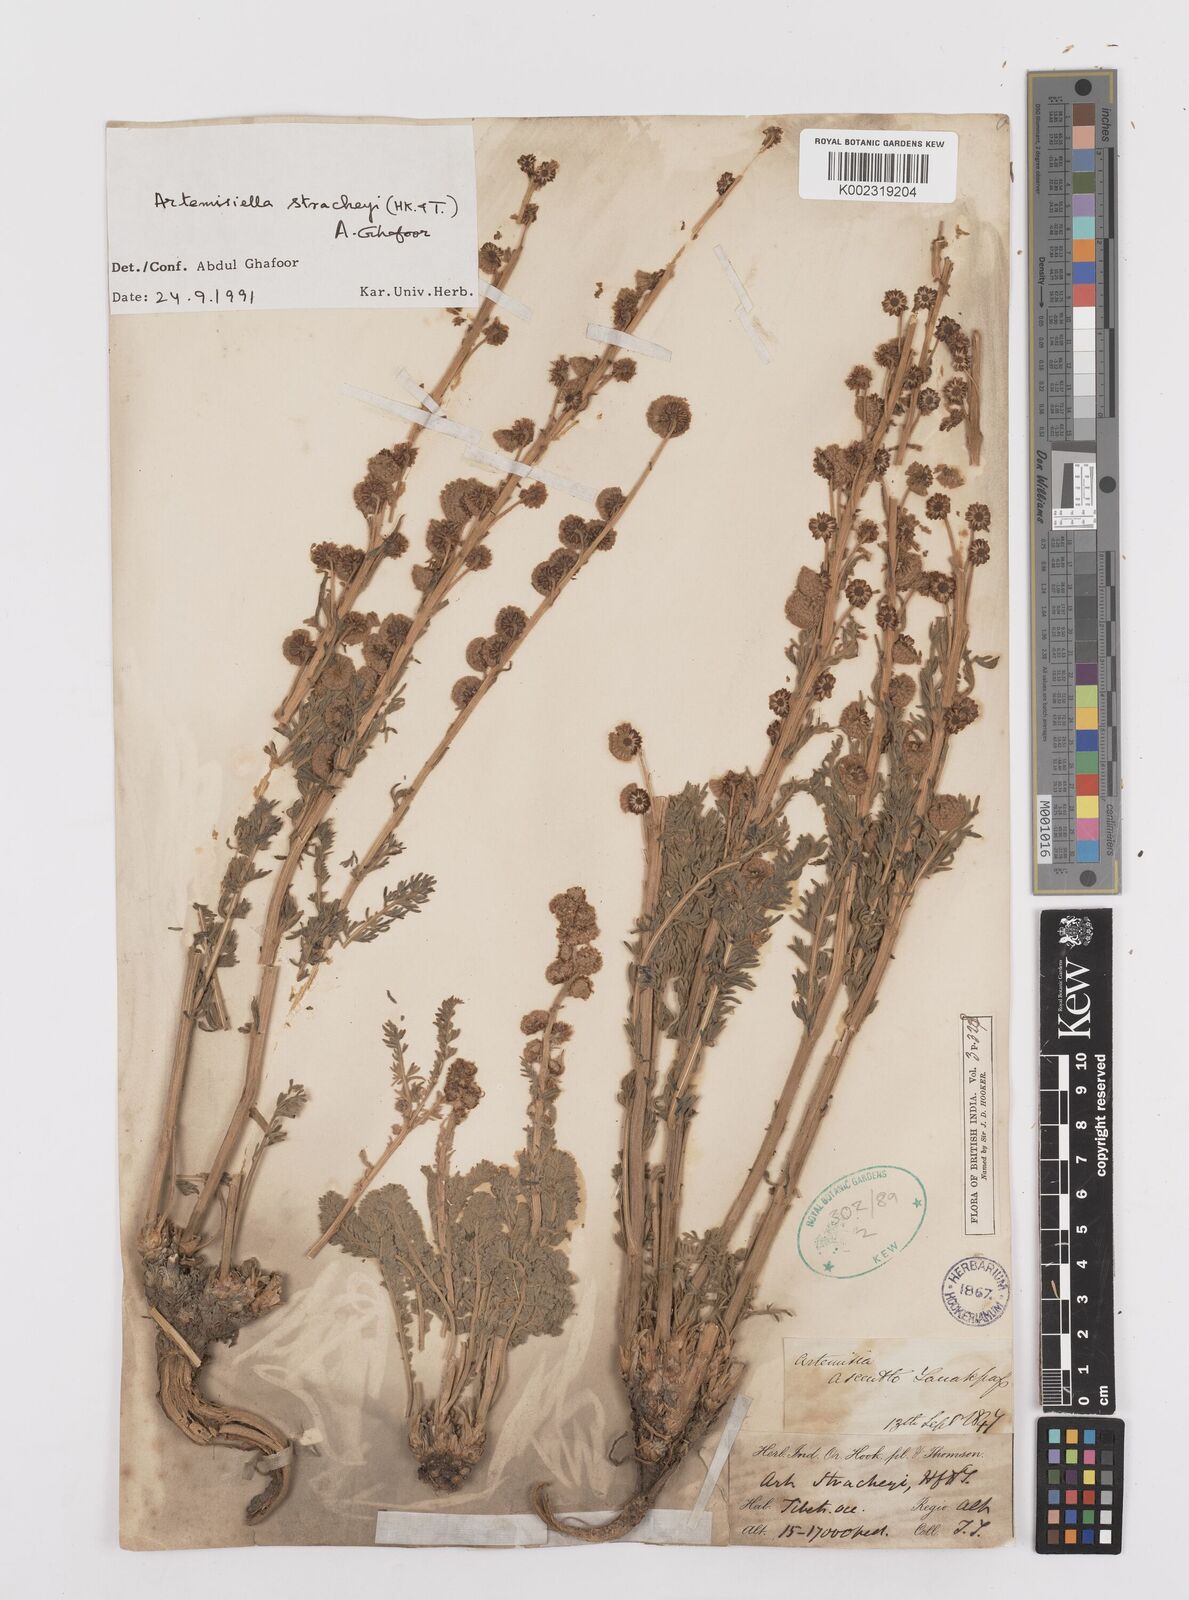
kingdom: Plantae
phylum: Tracheophyta
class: Magnoliopsida
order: Asterales
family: Asteraceae
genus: Artemisiella
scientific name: Artemisiella stracheyi
